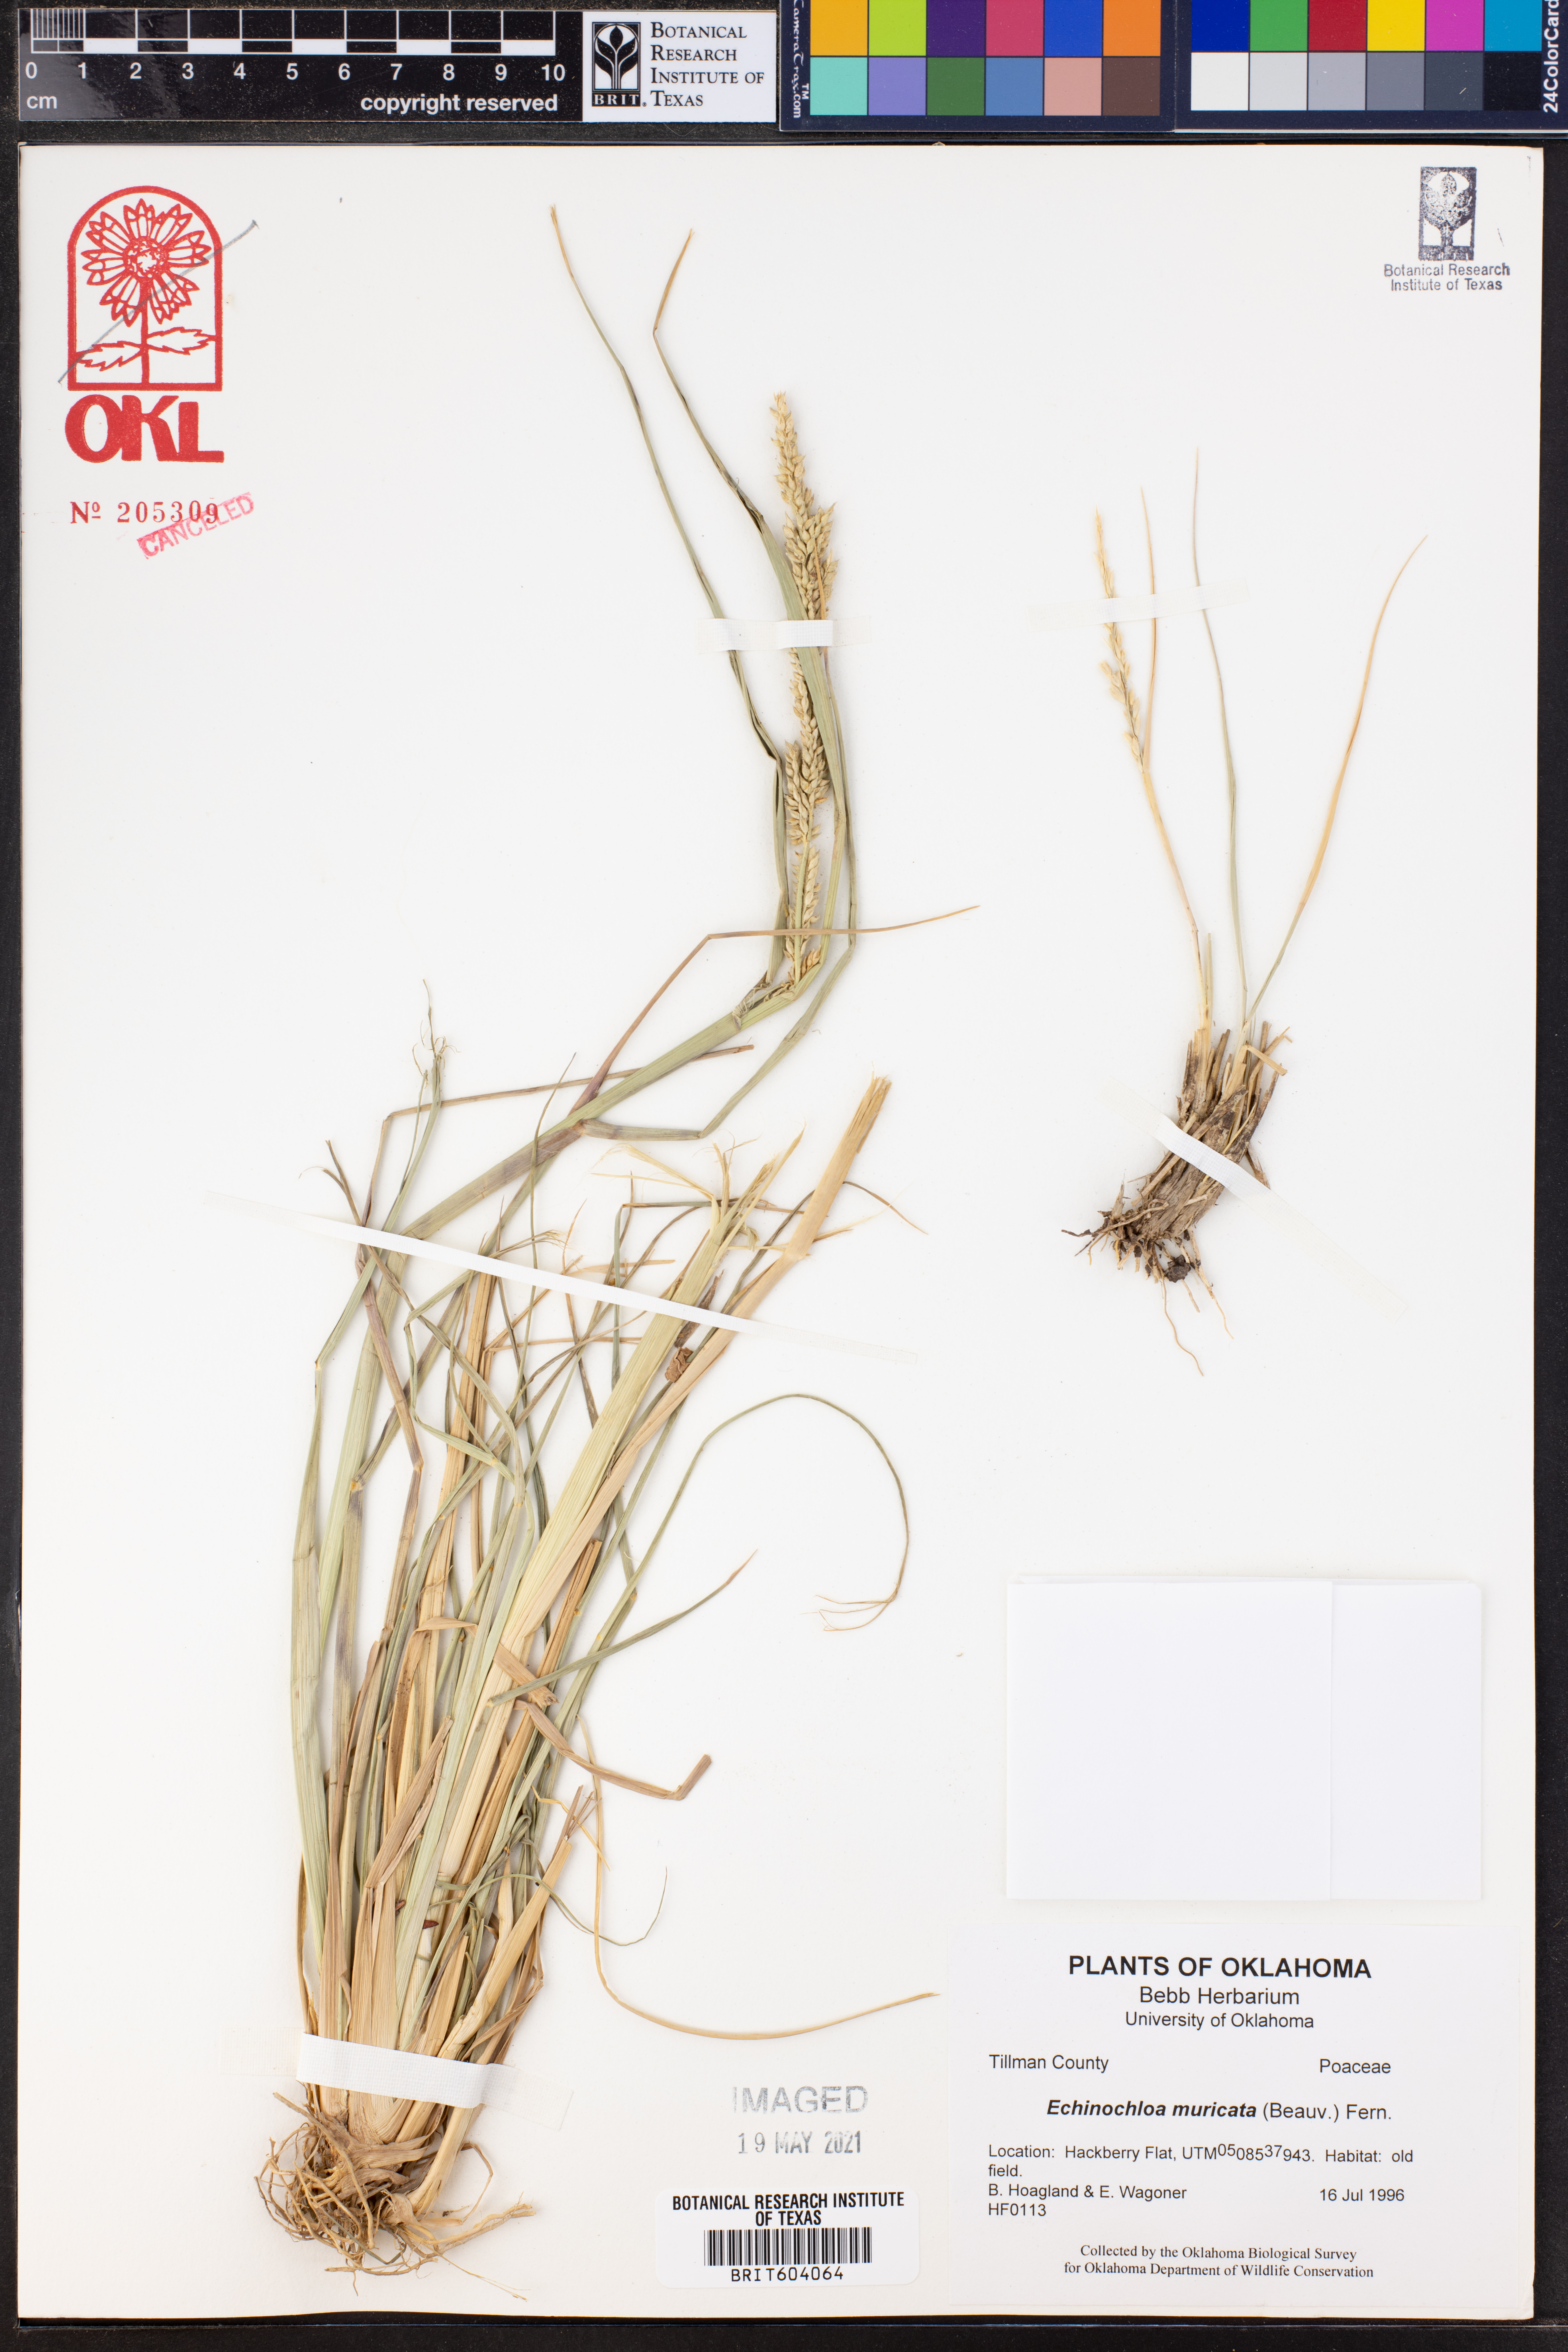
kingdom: Plantae
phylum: Tracheophyta
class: Liliopsida
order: Poales
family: Poaceae
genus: Echinochloa
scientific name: Echinochloa muricata
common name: American barnyard grass
